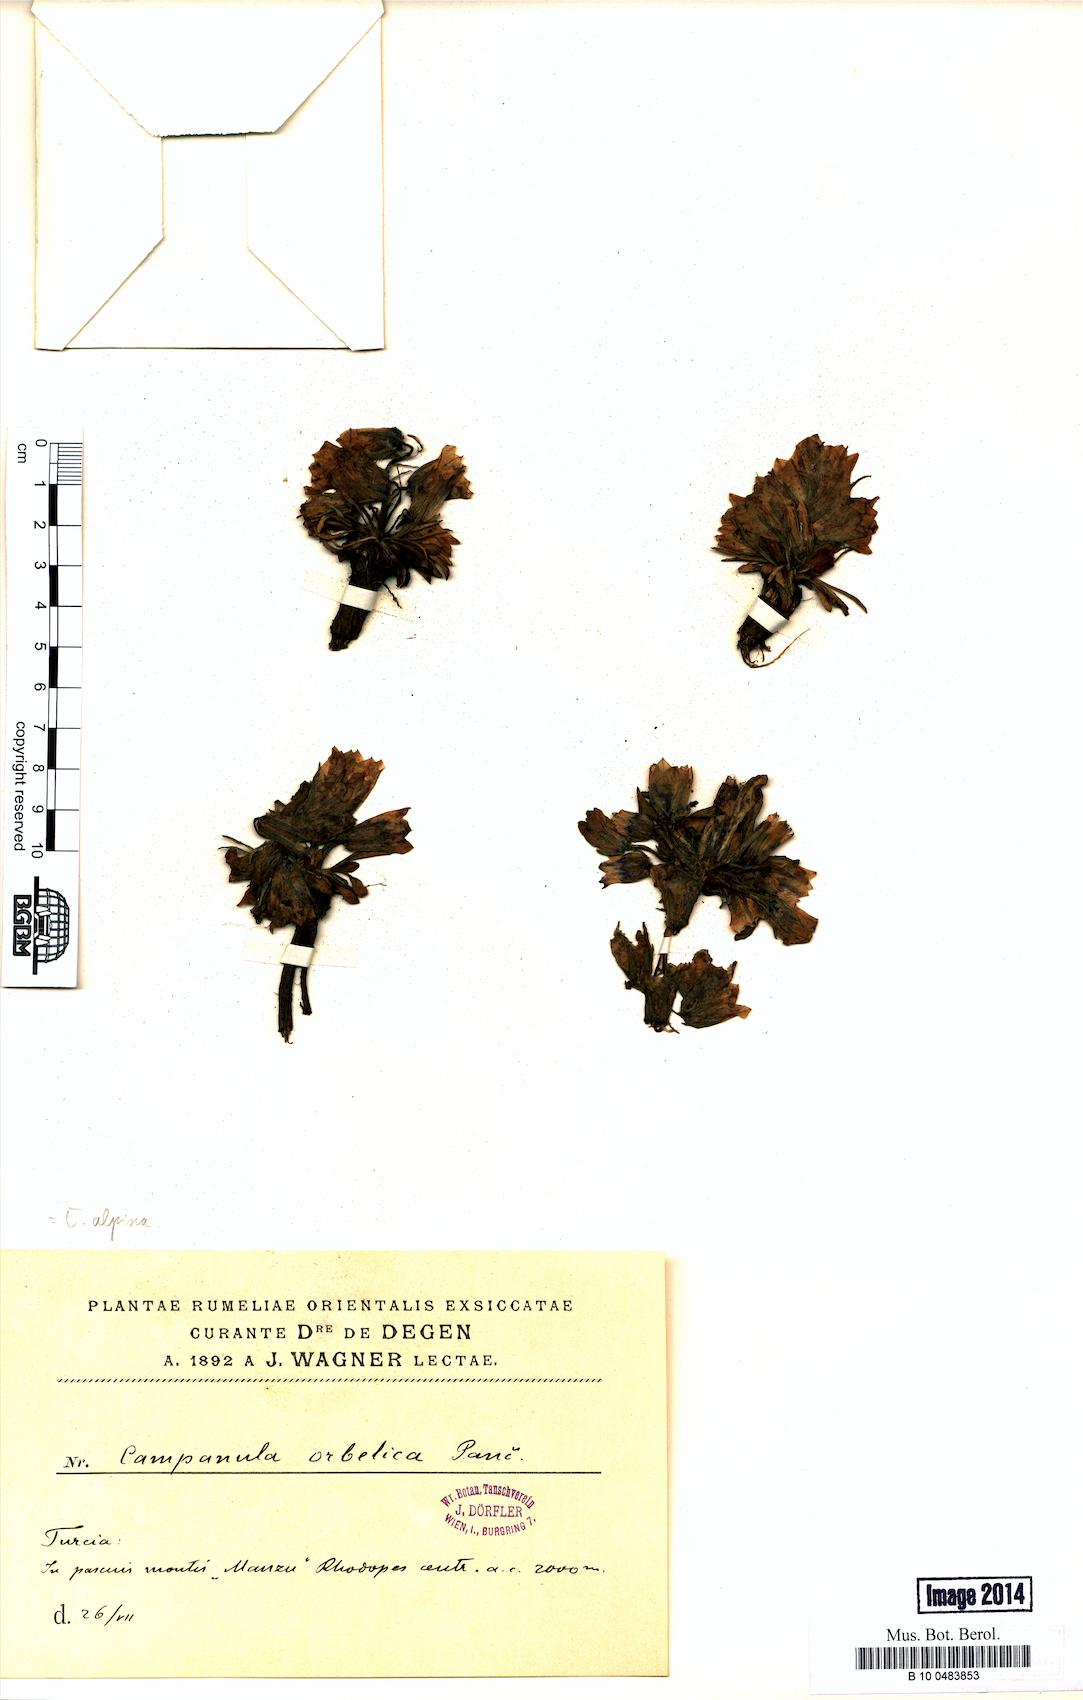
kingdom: Plantae
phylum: Tracheophyta
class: Magnoliopsida
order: Asterales
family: Campanulaceae
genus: Campanula
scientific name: Campanula alpina
